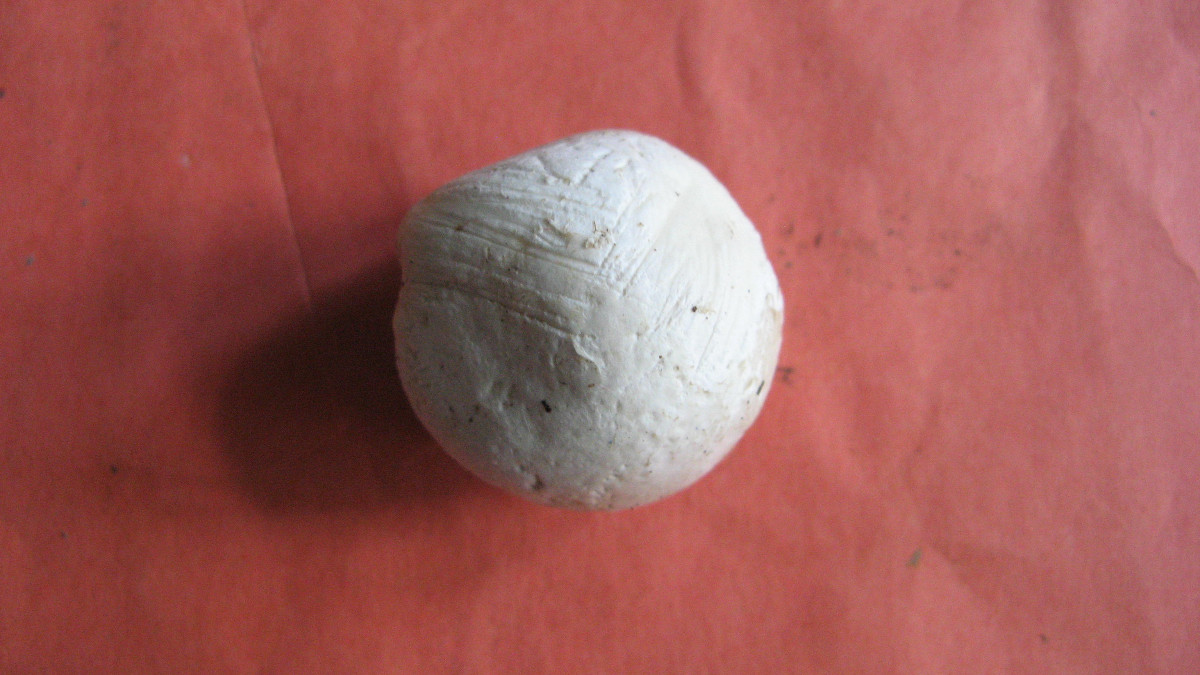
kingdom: Fungi
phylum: Basidiomycota
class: Agaricomycetes
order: Agaricales
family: Lycoperdaceae
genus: Bovista
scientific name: Bovista nigrescens
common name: sortagtig bovist
